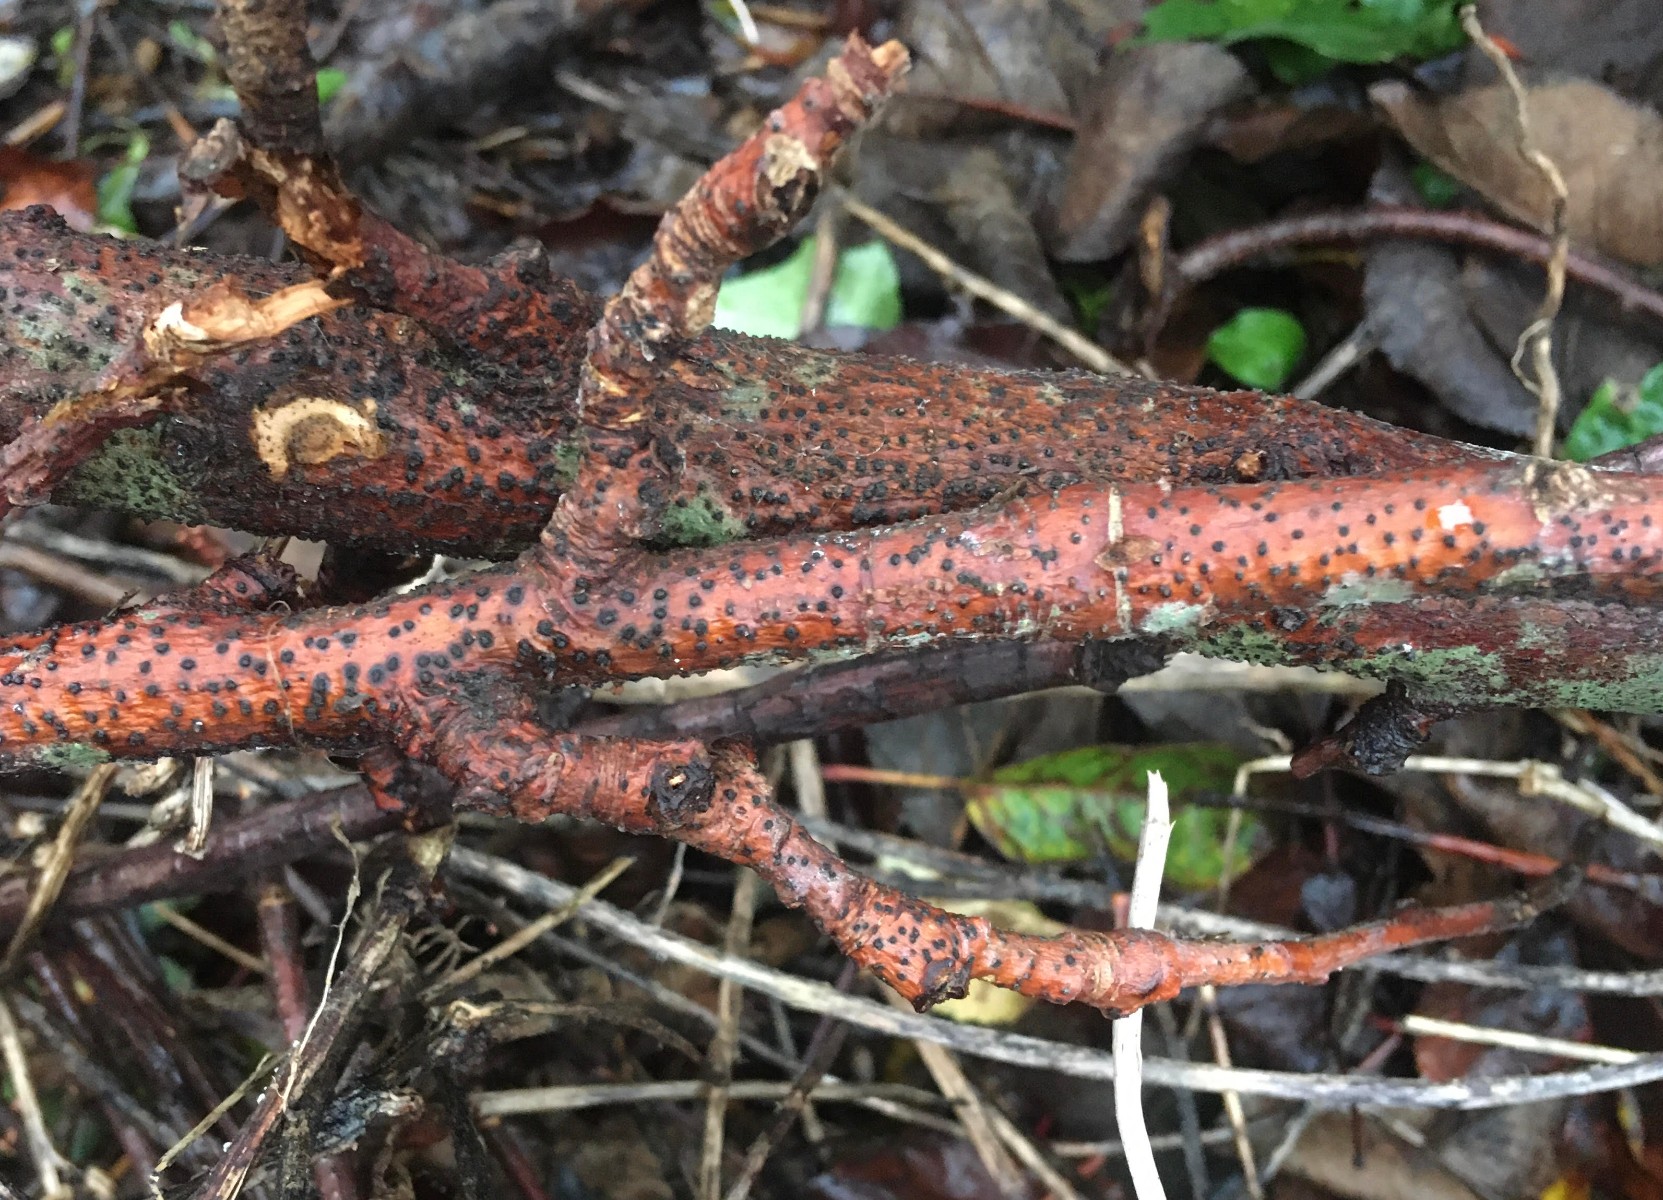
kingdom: Fungi
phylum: Ascomycota
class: Sordariomycetes
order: Diaporthales
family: Valsaceae
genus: Cytospora
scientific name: Cytospora populina
